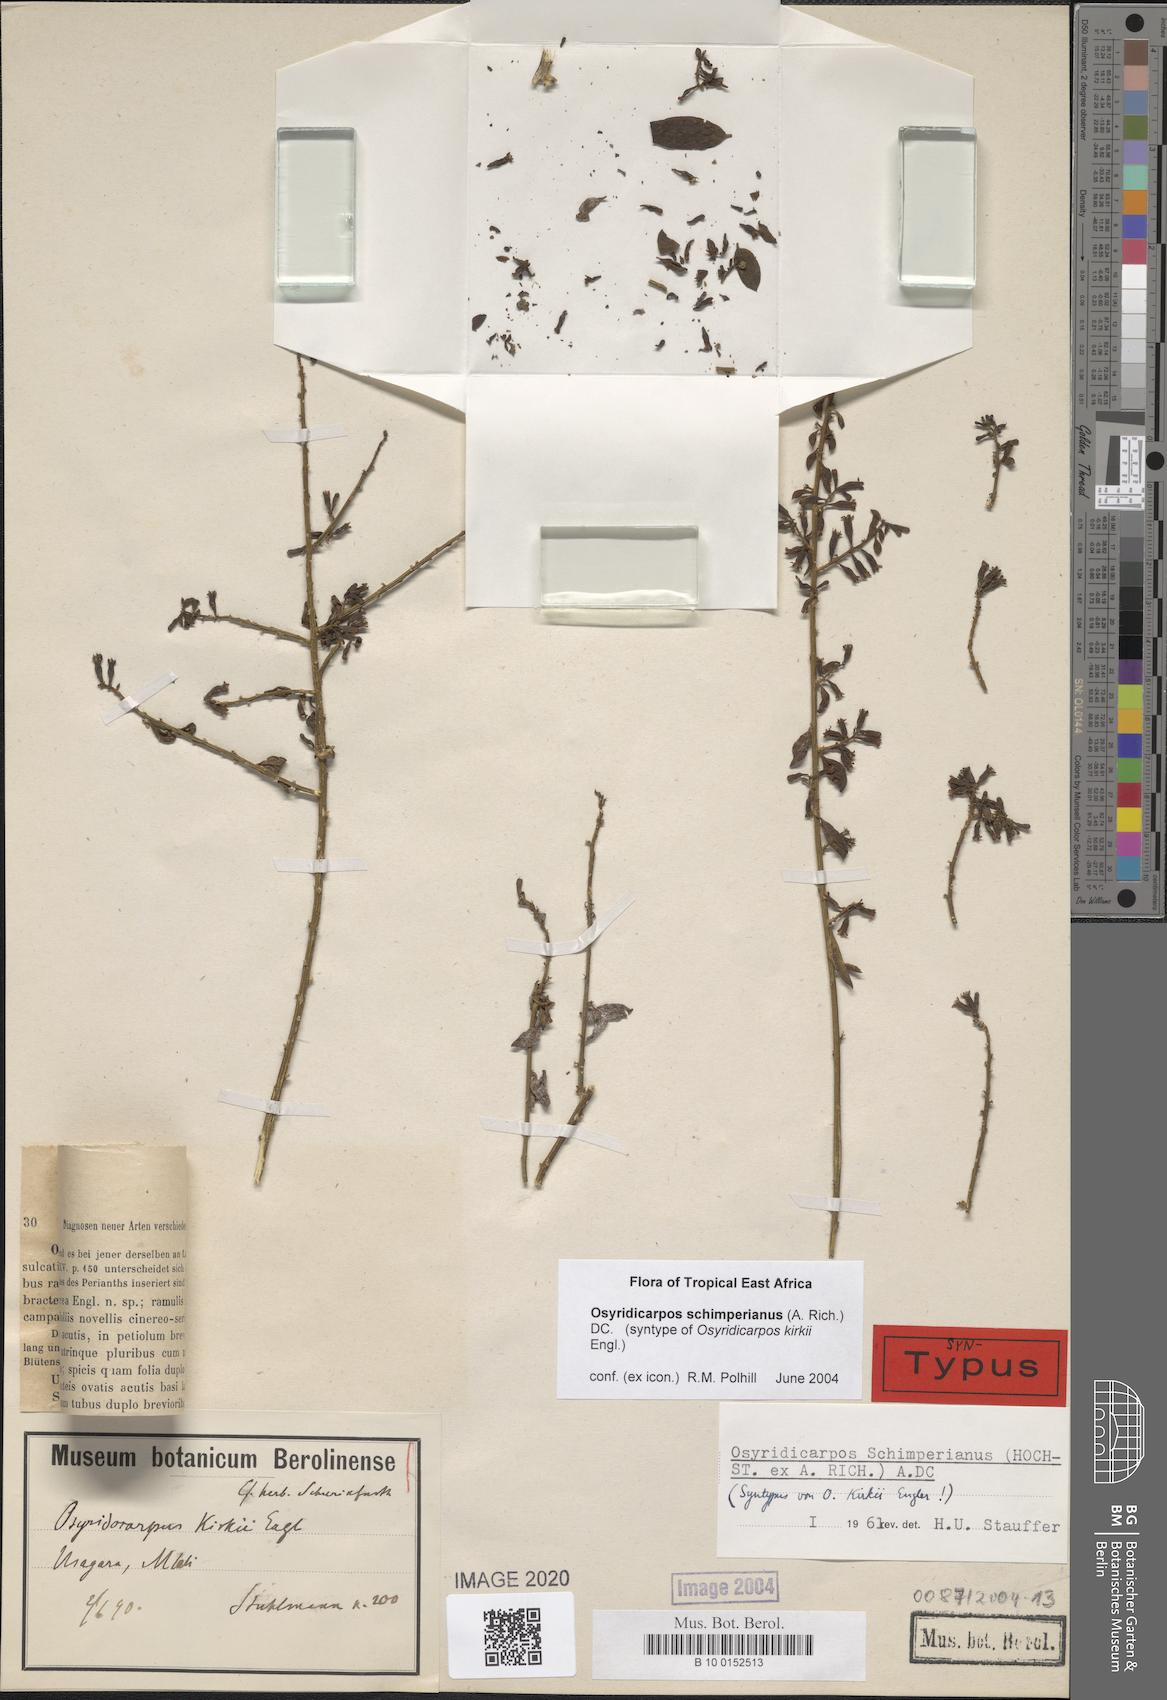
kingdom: Plantae
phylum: Tracheophyta
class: Magnoliopsida
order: Santalales
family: Thesiaceae
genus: Osyridicarpos
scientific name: Osyridicarpos schimperianus
